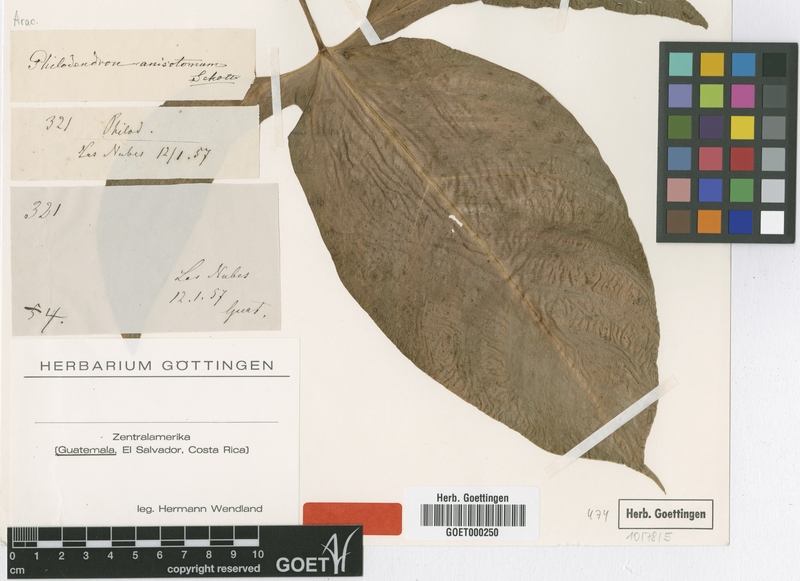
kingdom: Plantae
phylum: Tracheophyta
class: Liliopsida
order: Alismatales
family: Araceae
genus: Philodendron
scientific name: Philodendron anisotomum
